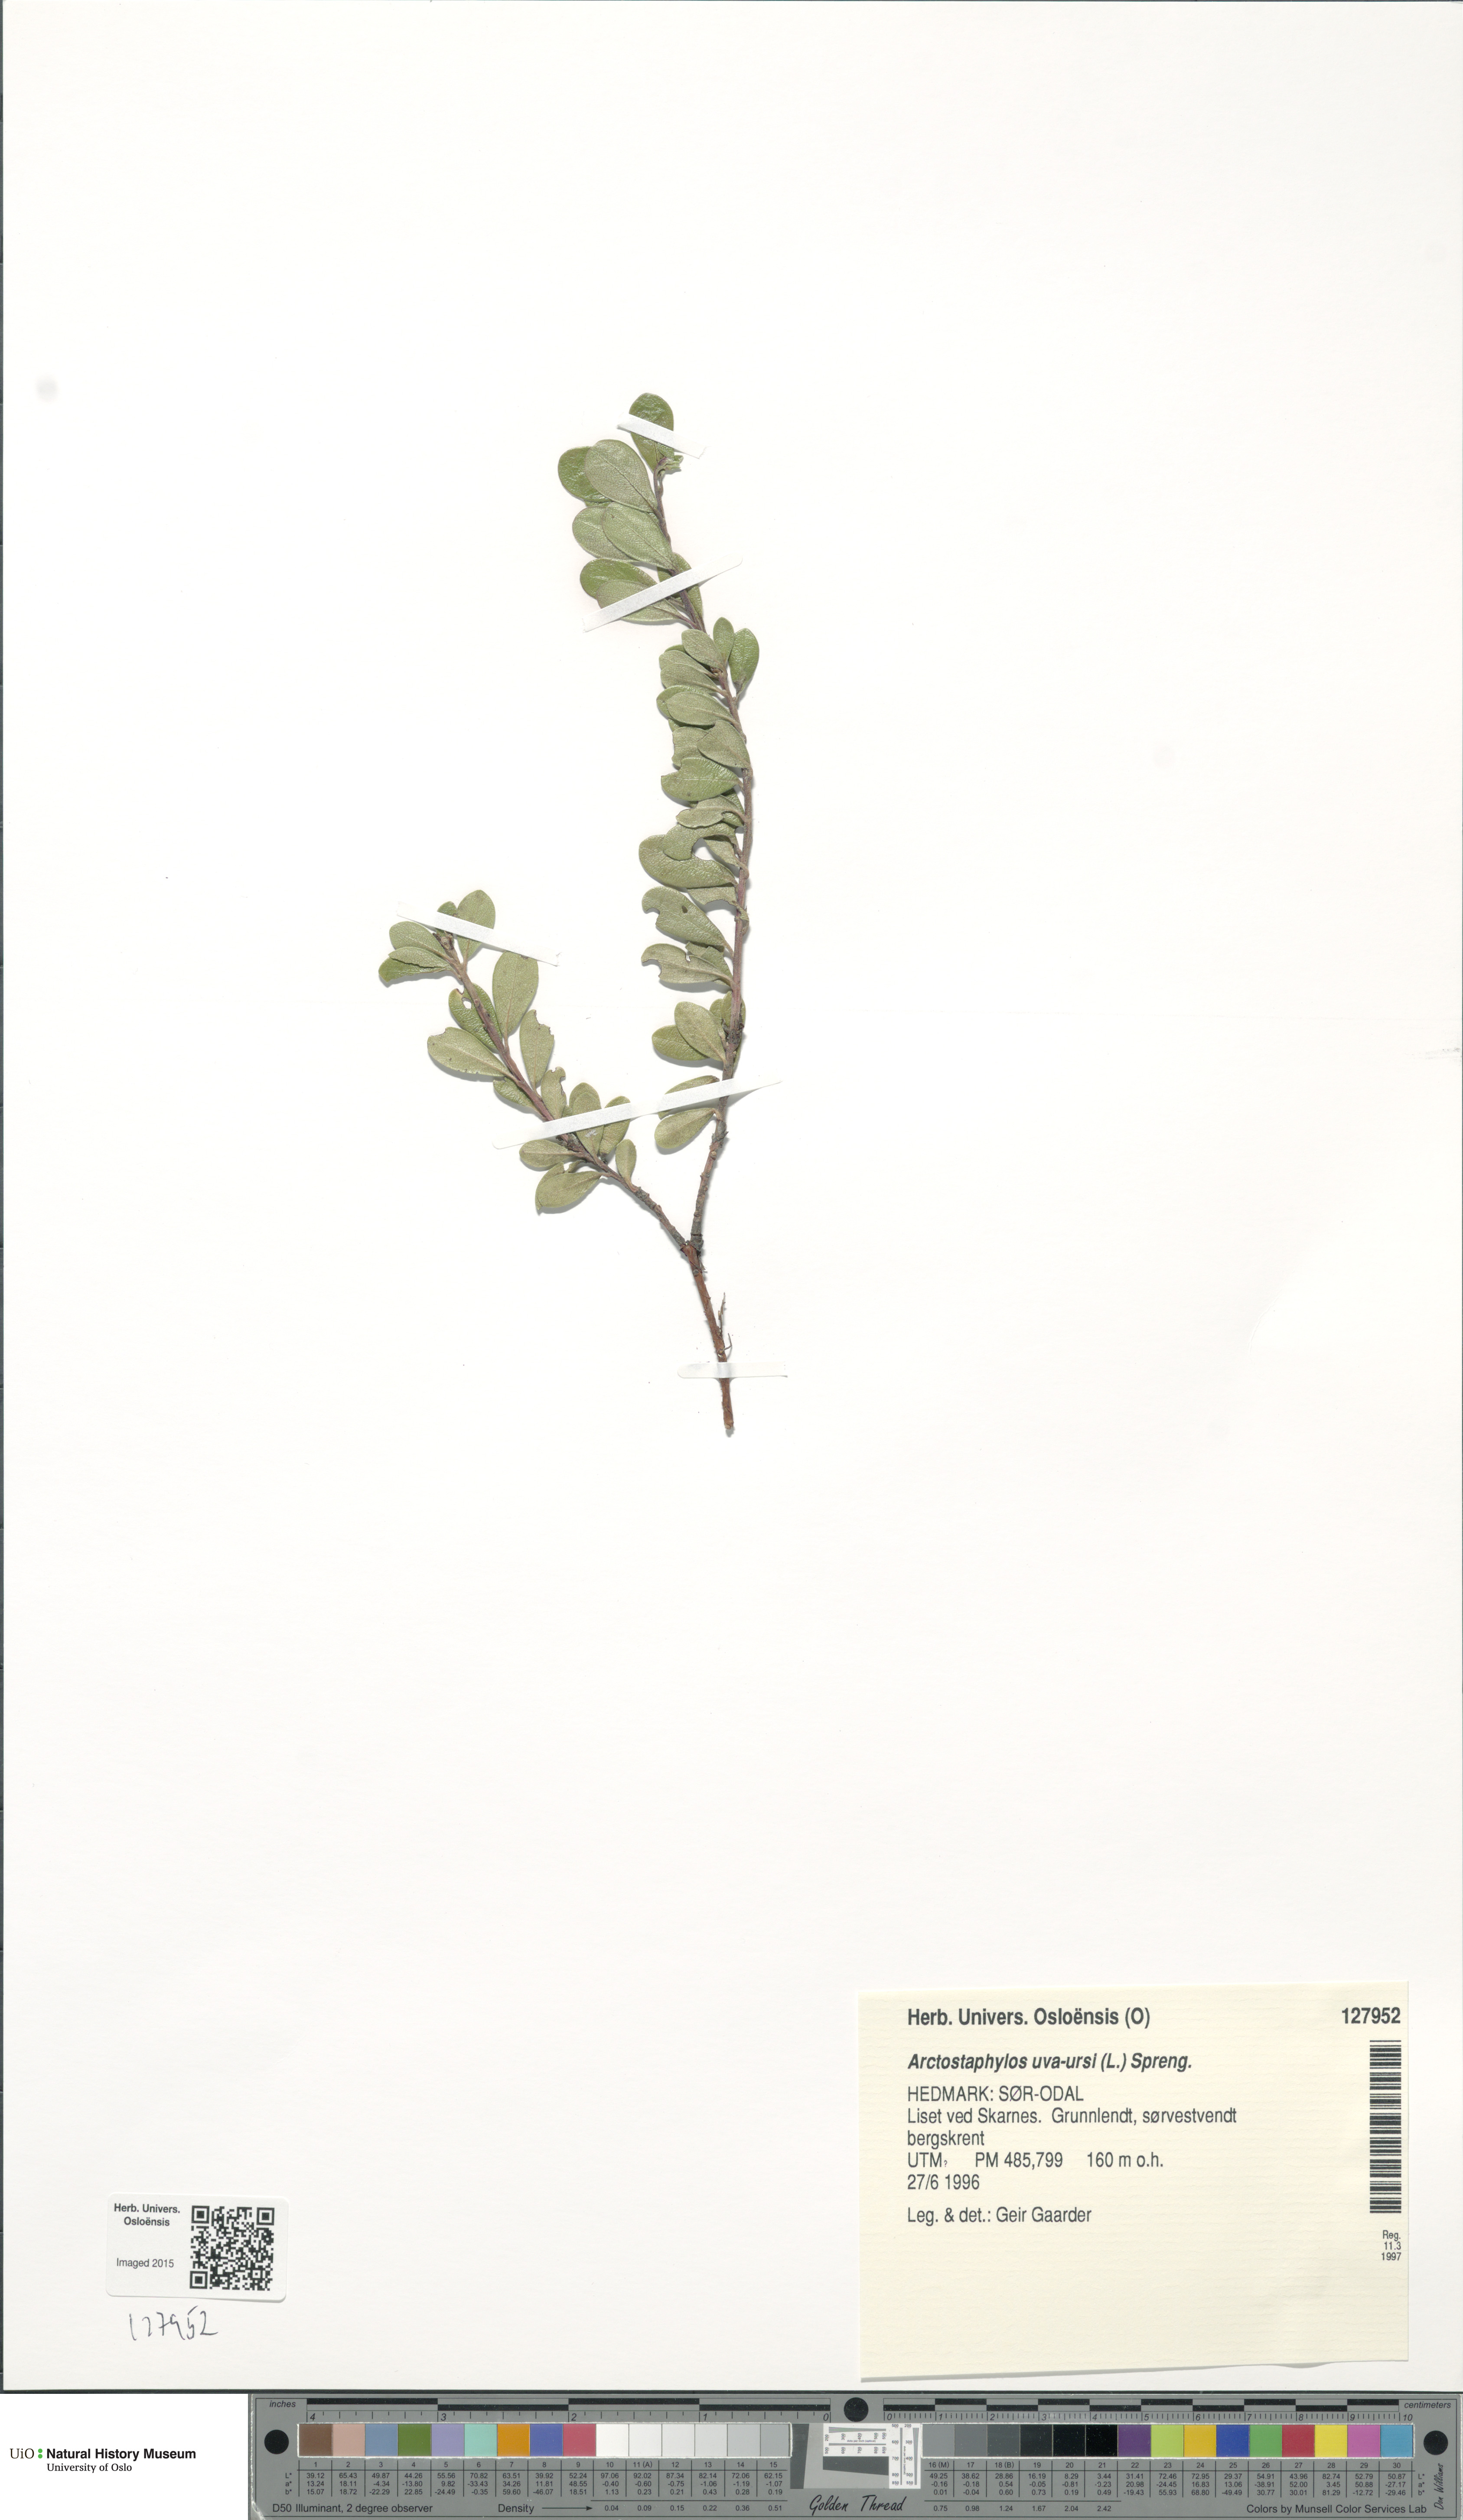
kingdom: Plantae
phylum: Tracheophyta
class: Magnoliopsida
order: Ericales
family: Ericaceae
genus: Arctostaphylos
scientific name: Arctostaphylos uva-ursi
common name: Bearberry
